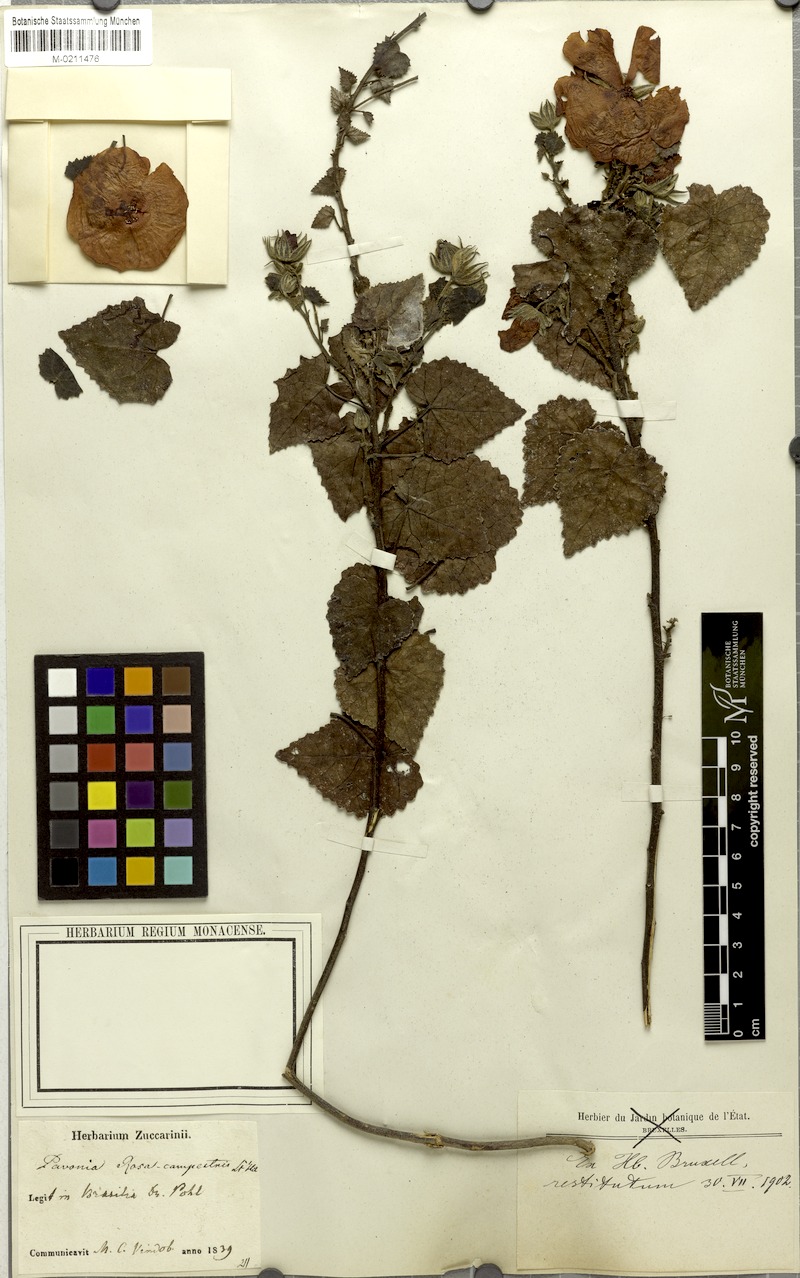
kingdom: Plantae
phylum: Tracheophyta
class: Magnoliopsida
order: Malvales
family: Malvaceae
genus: Pavonia
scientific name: Pavonia rosa-campestris
